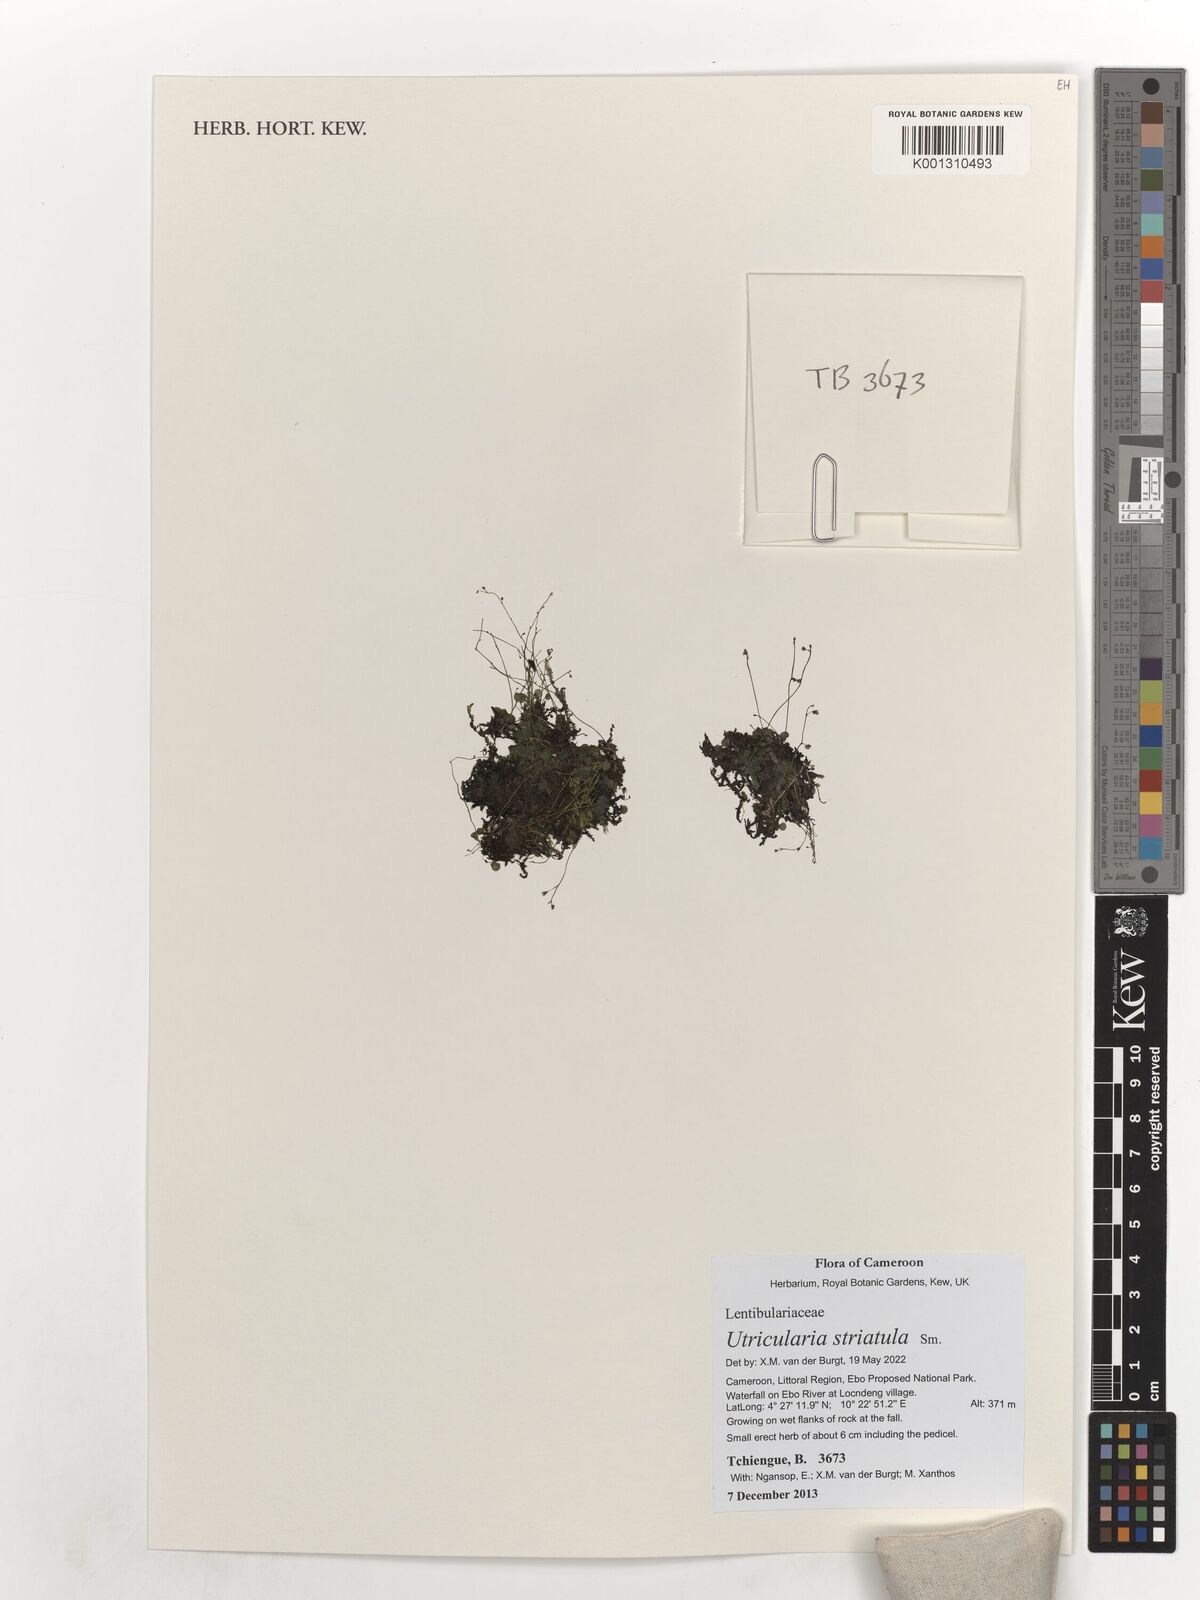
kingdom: Plantae
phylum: Tracheophyta
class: Magnoliopsida
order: Lamiales
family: Lentibulariaceae
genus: Utricularia
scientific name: Utricularia striatula
